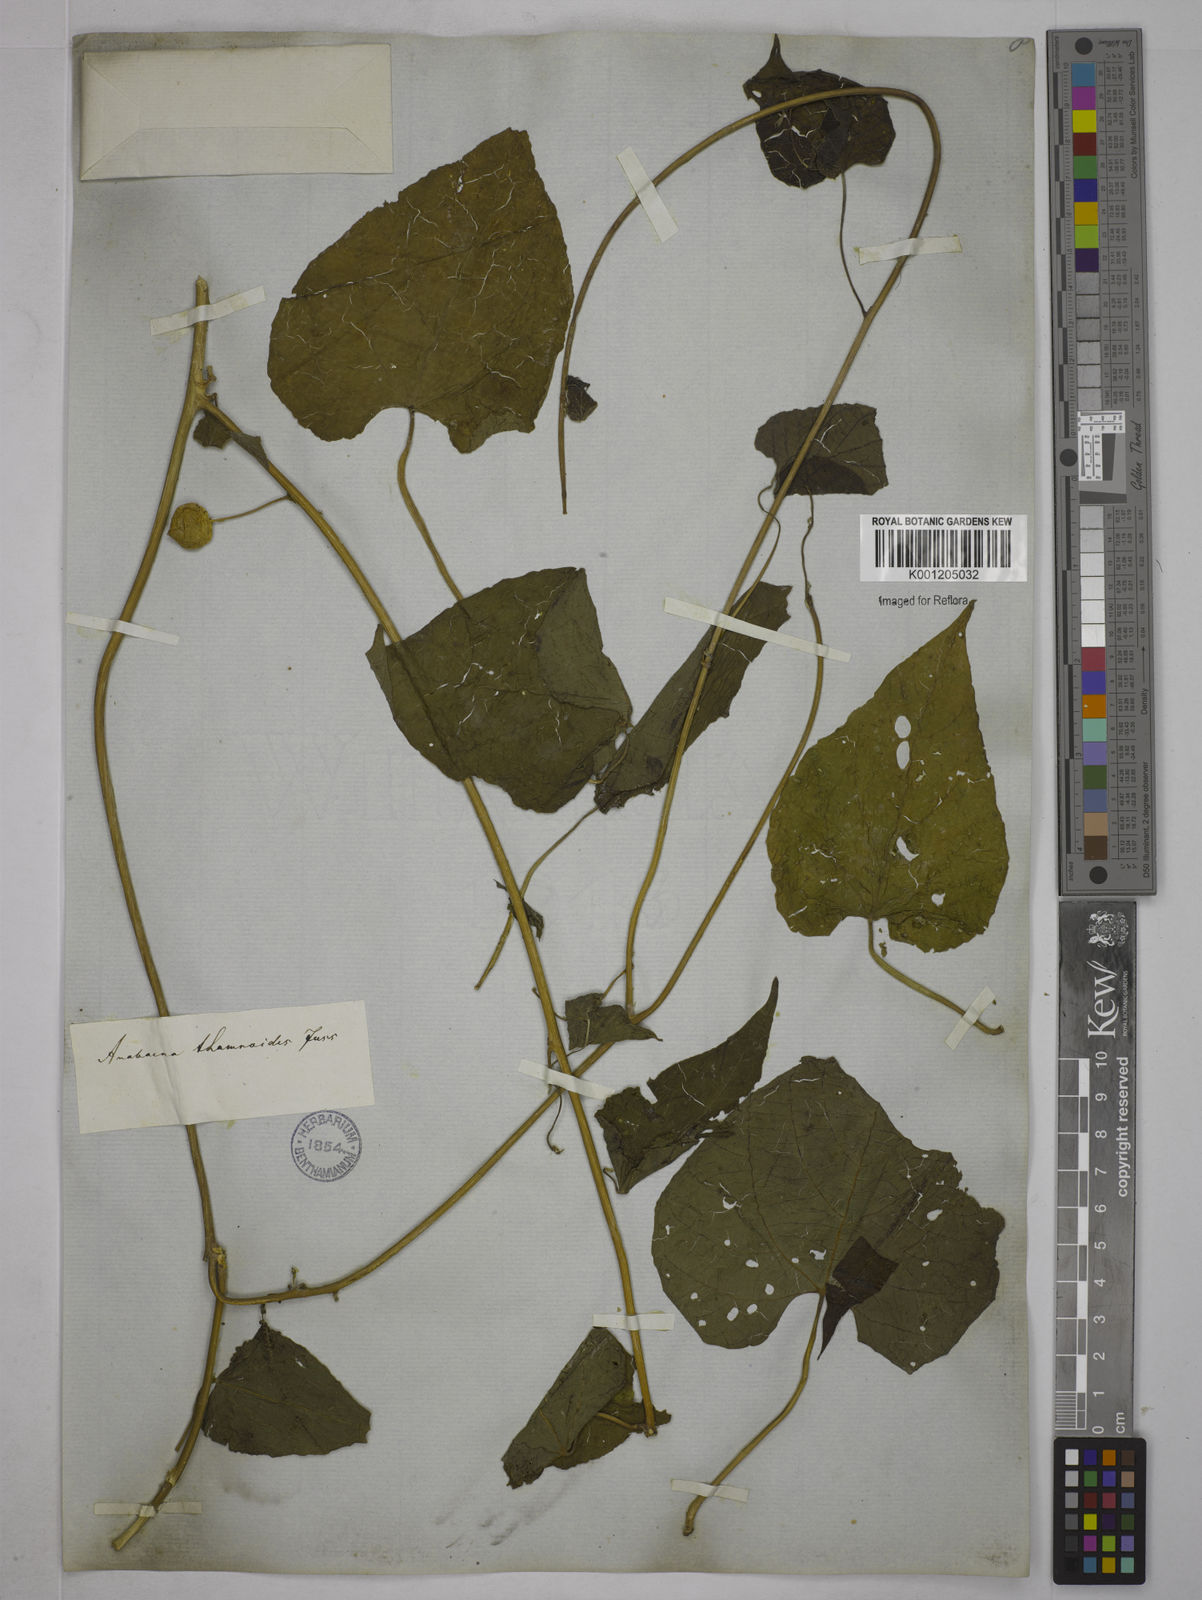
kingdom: Plantae
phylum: Tracheophyta
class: Magnoliopsida
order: Malpighiales
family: Euphorbiaceae
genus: Romanoa
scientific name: Romanoa tamnoides
